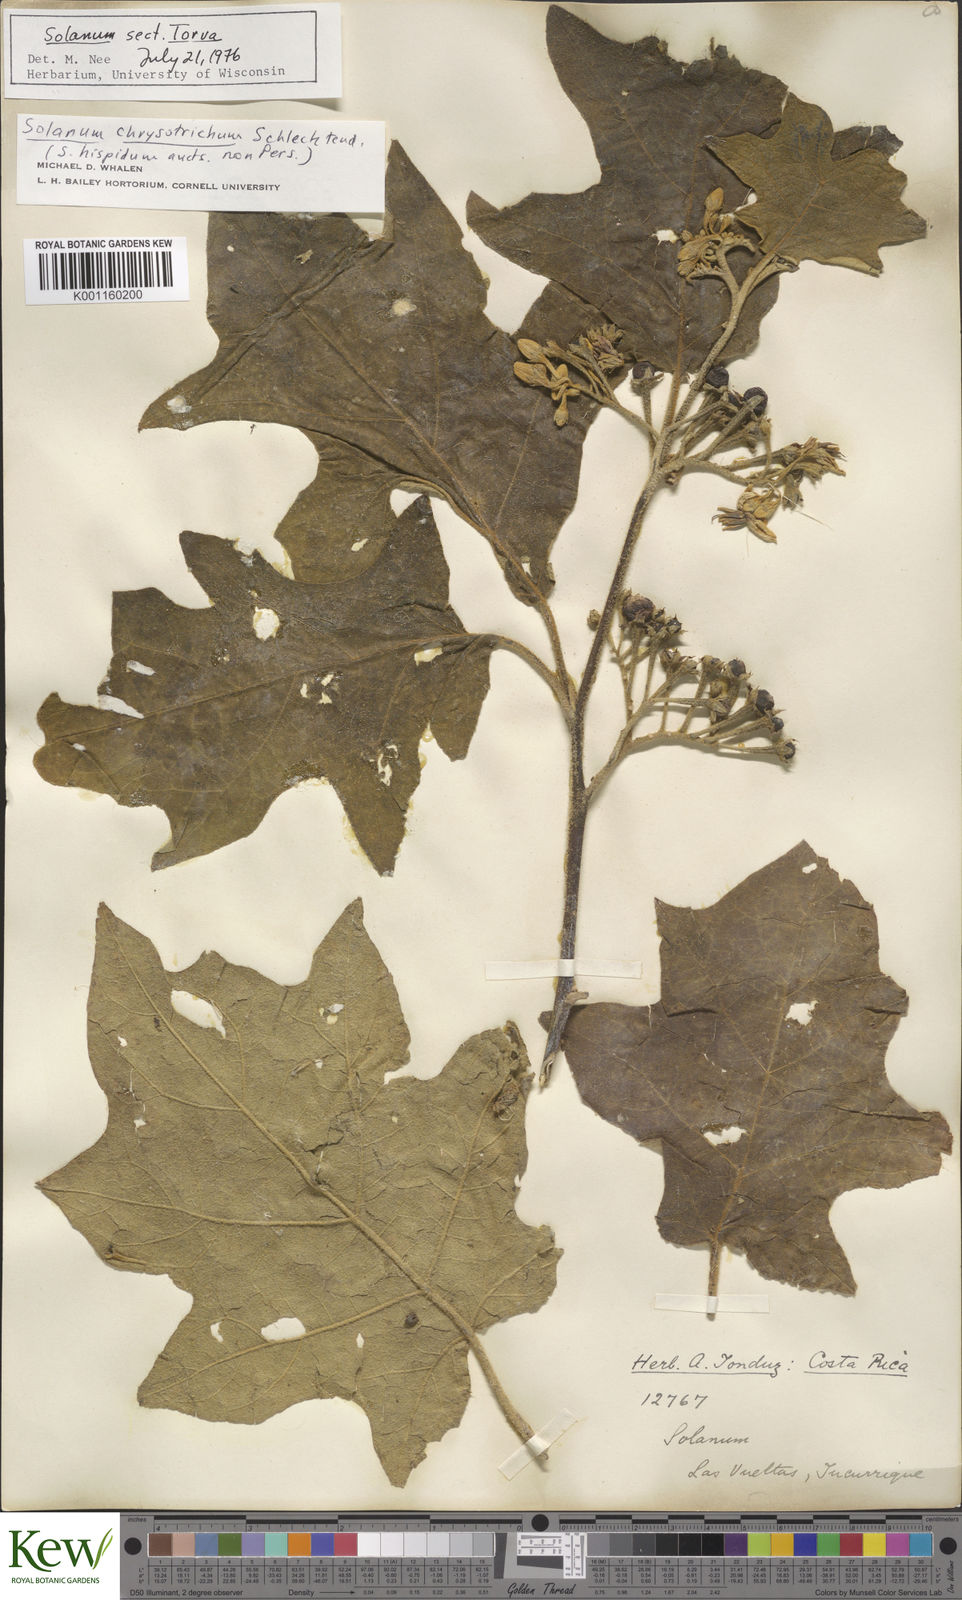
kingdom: Plantae
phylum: Tracheophyta
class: Magnoliopsida
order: Solanales
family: Solanaceae
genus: Solanum
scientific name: Solanum chrysotrichum
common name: Nightshade
